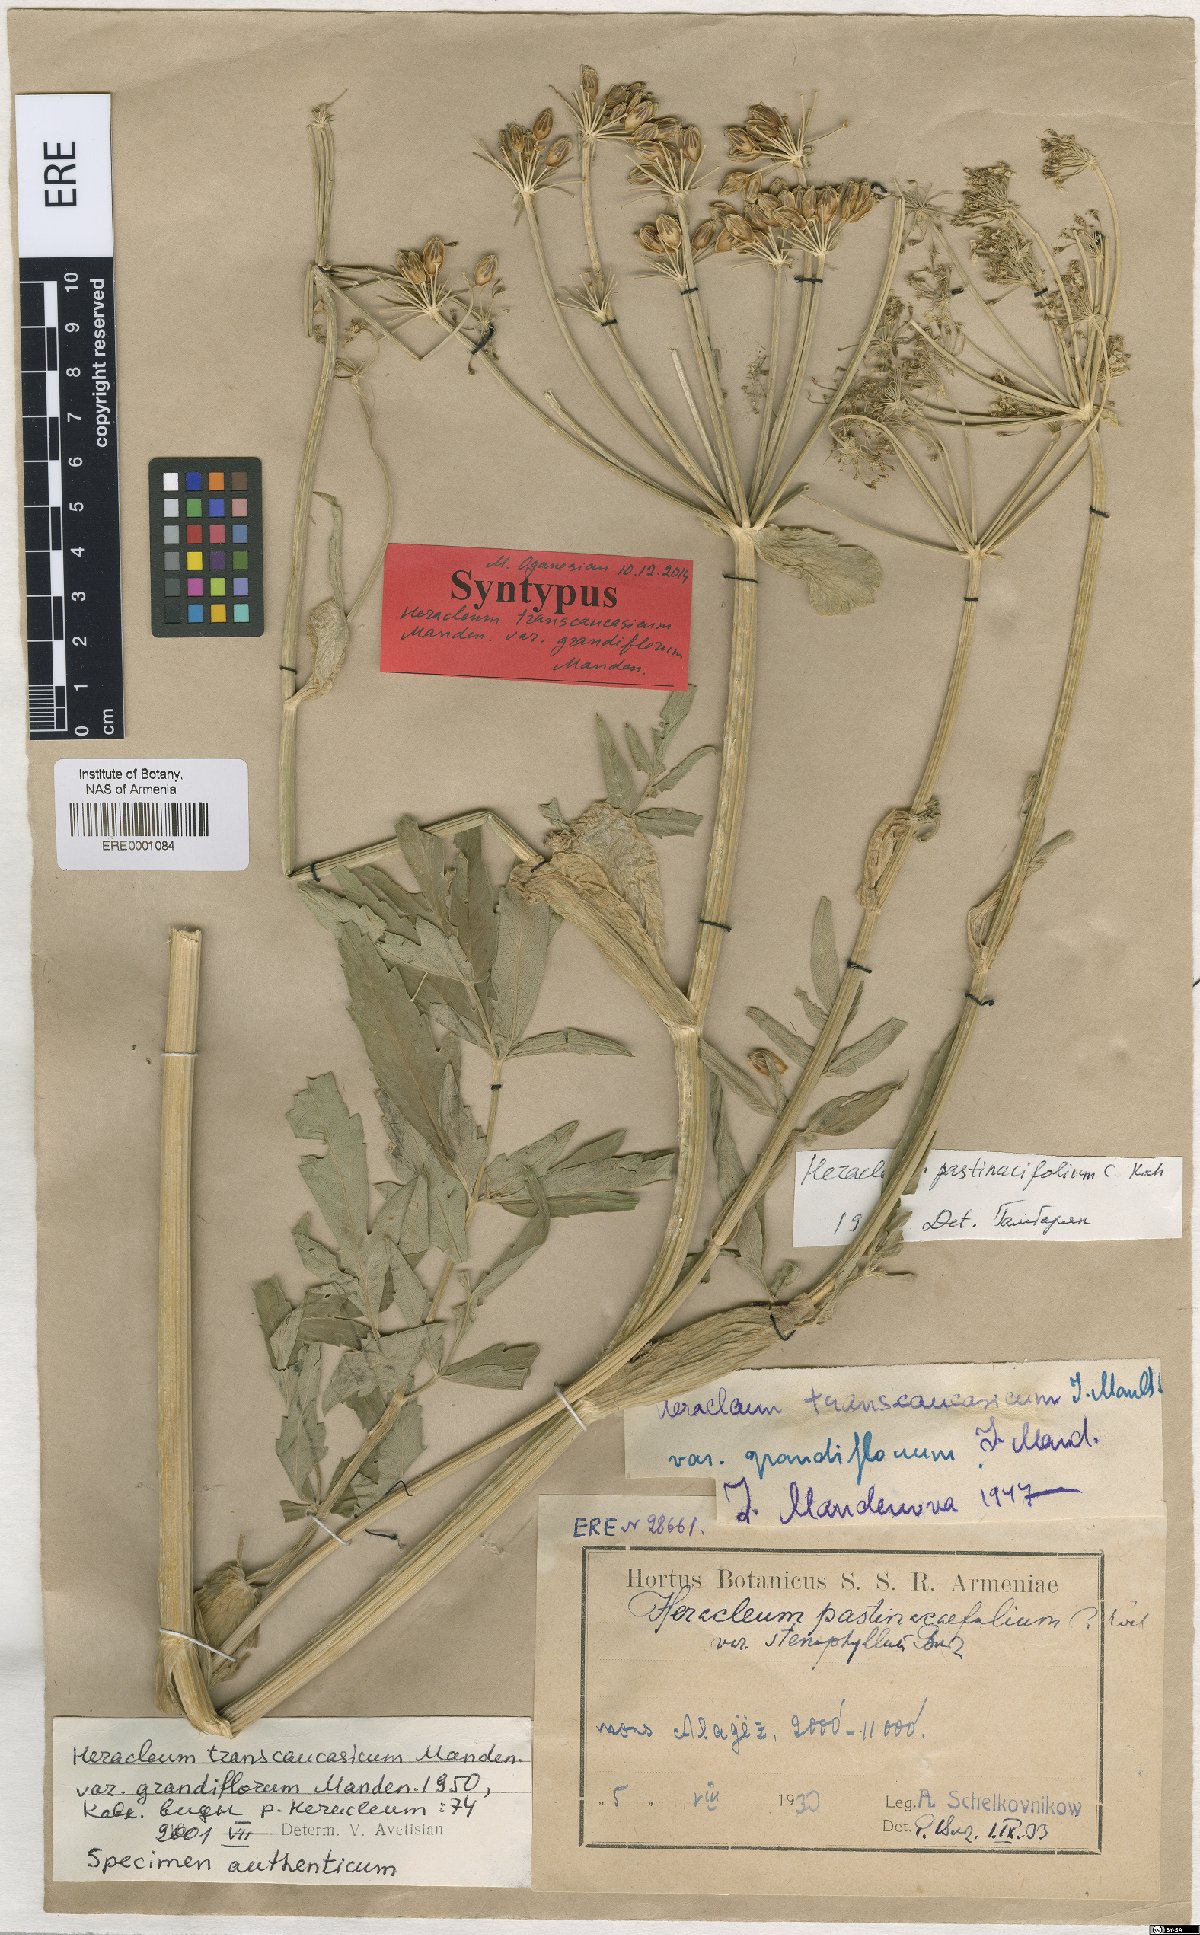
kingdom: Plantae
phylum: Tracheophyta
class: Magnoliopsida
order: Apiales
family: Apiaceae
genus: Heracleum
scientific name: Heracleum pastinacifolium
